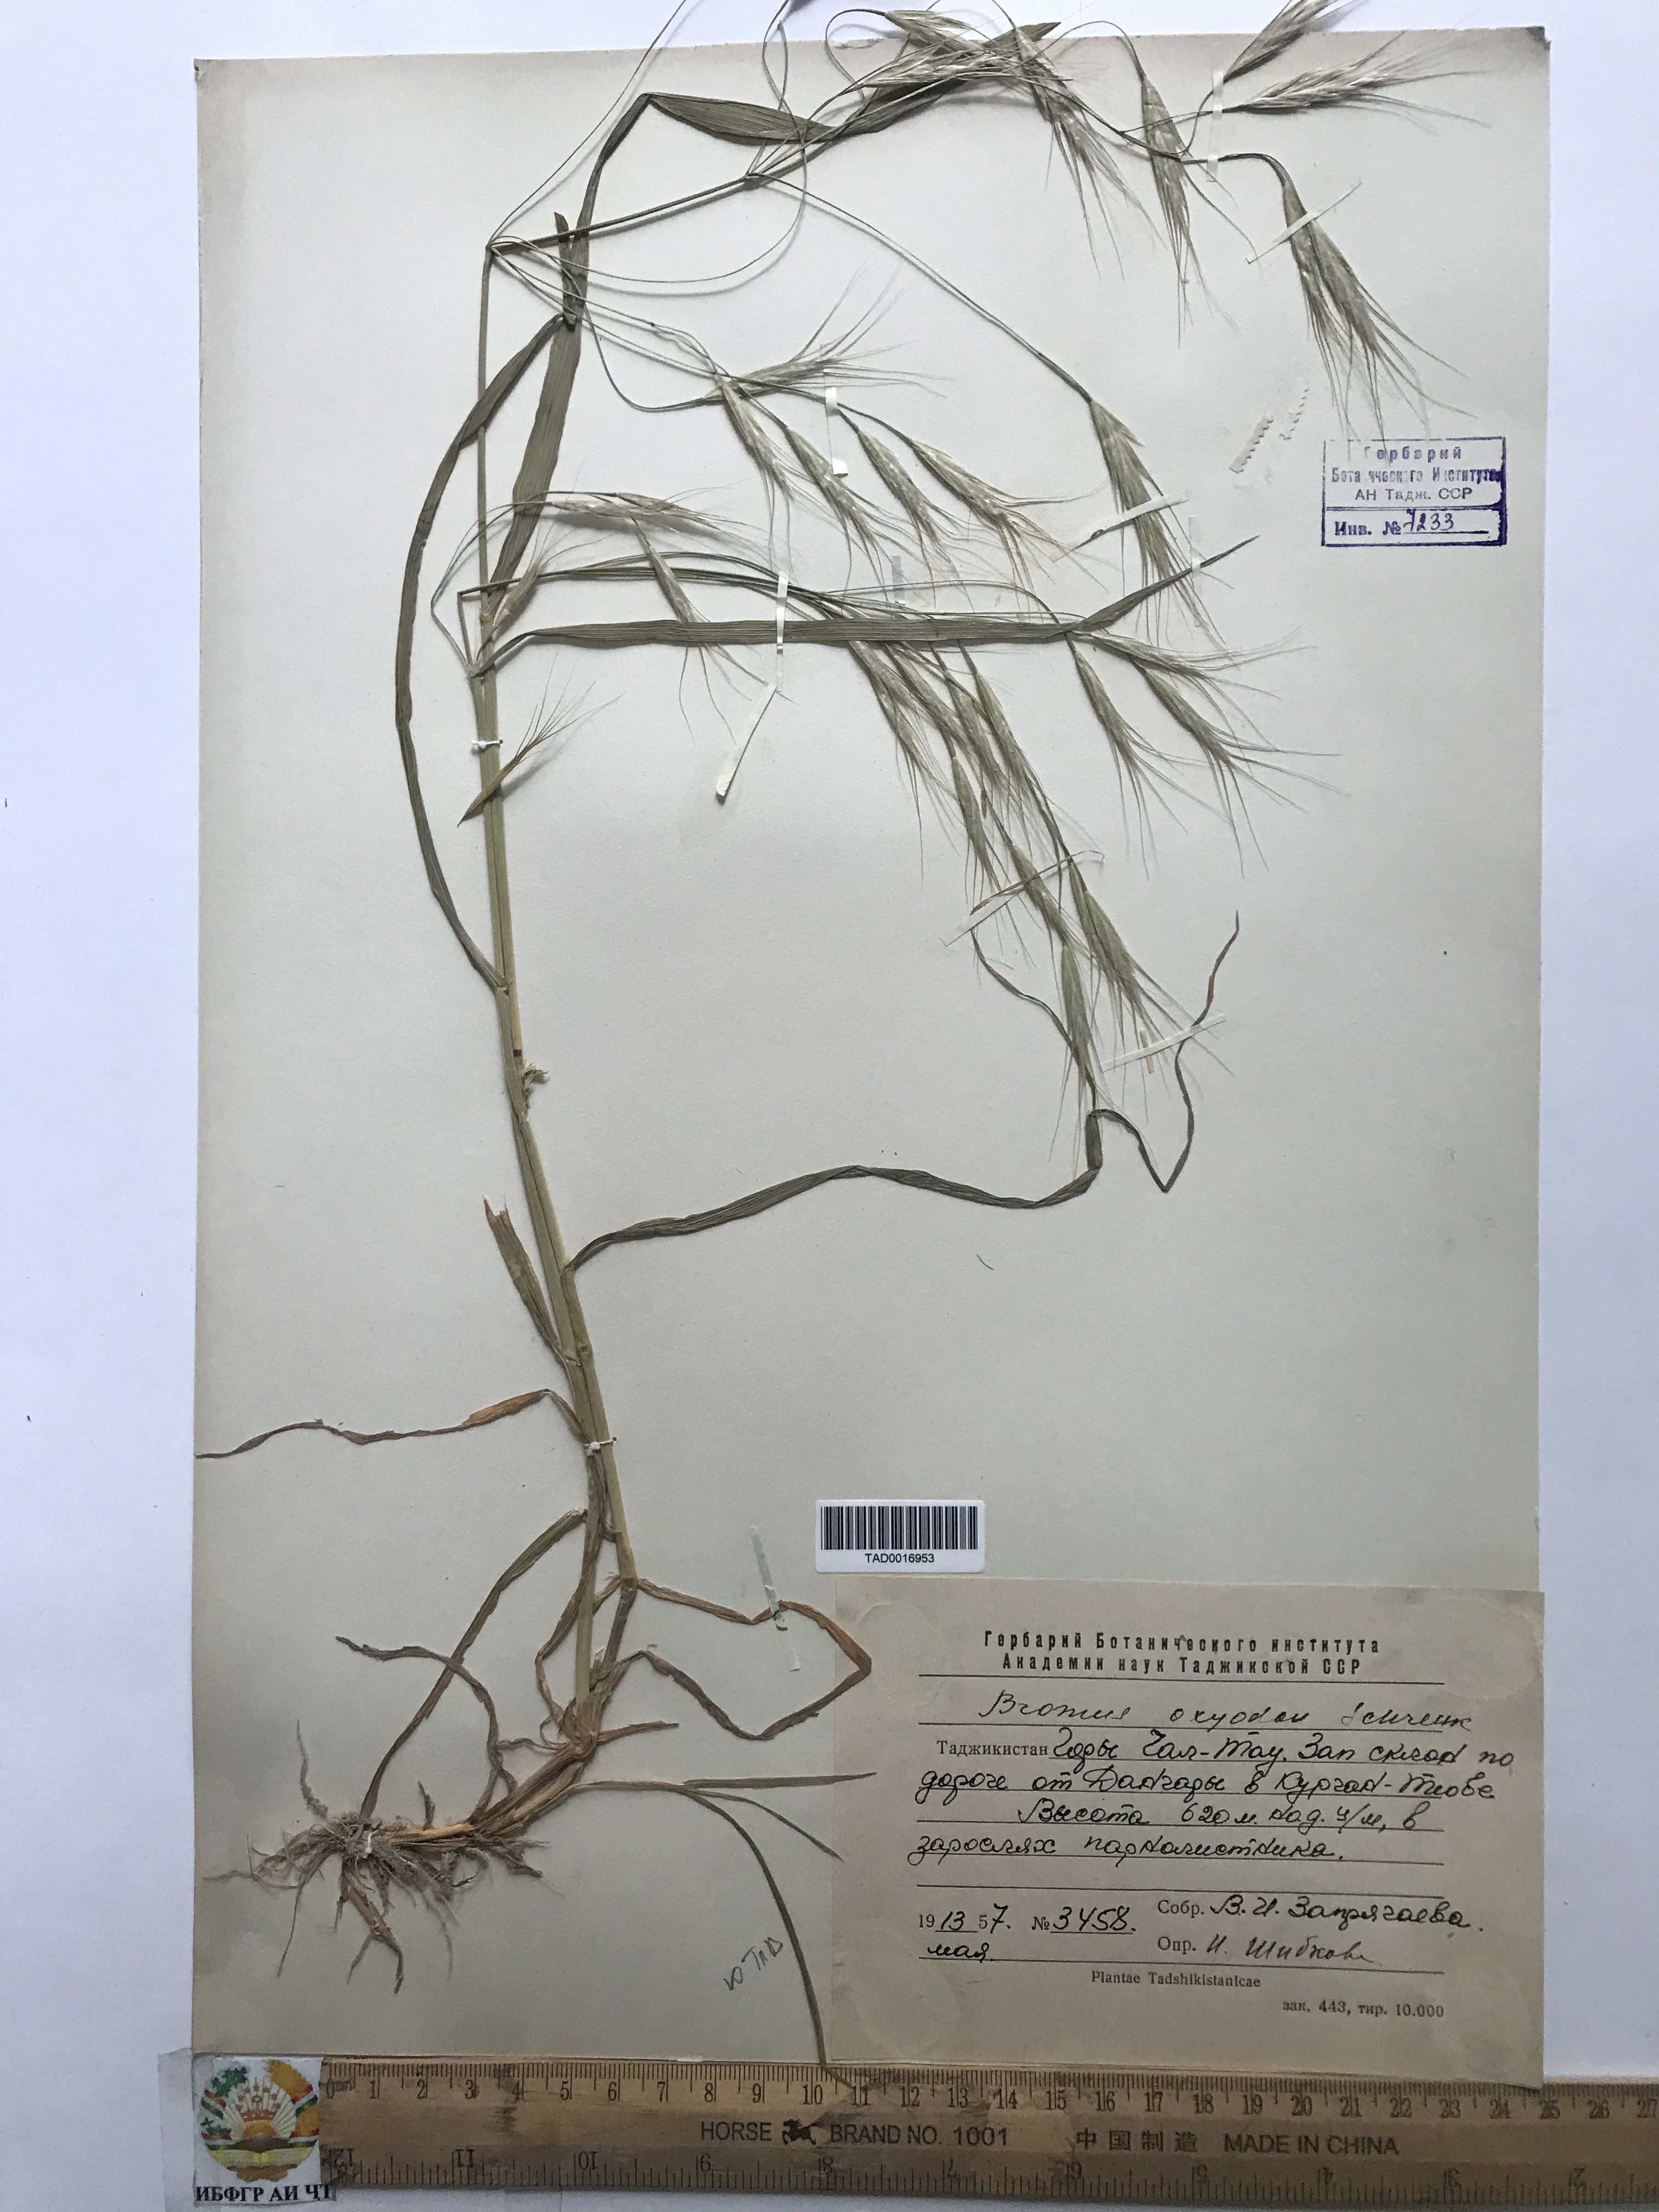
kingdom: Plantae
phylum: Tracheophyta
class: Liliopsida
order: Poales
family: Poaceae
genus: Bromus
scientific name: Bromus oxyodon
